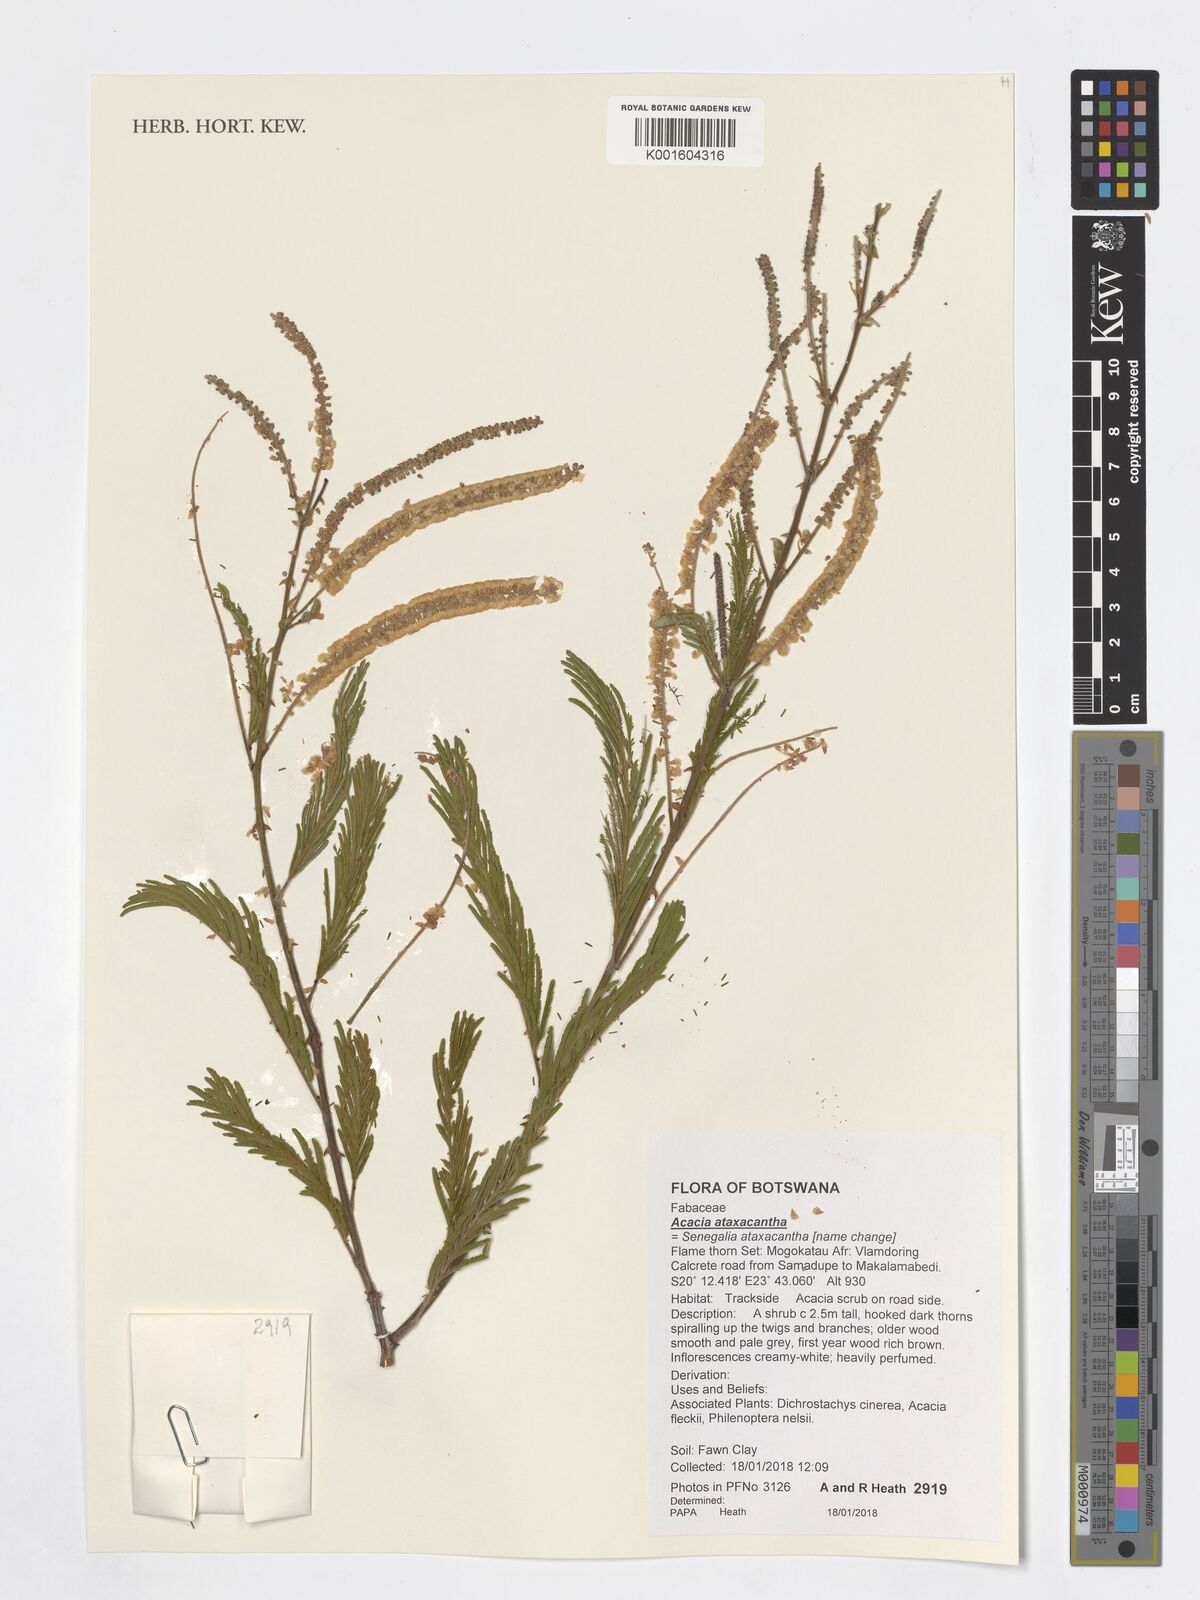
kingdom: Plantae
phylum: Tracheophyta
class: Magnoliopsida
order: Fabales
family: Fabaceae
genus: Senegalia
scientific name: Senegalia ataxacantha
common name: Flame acacia
